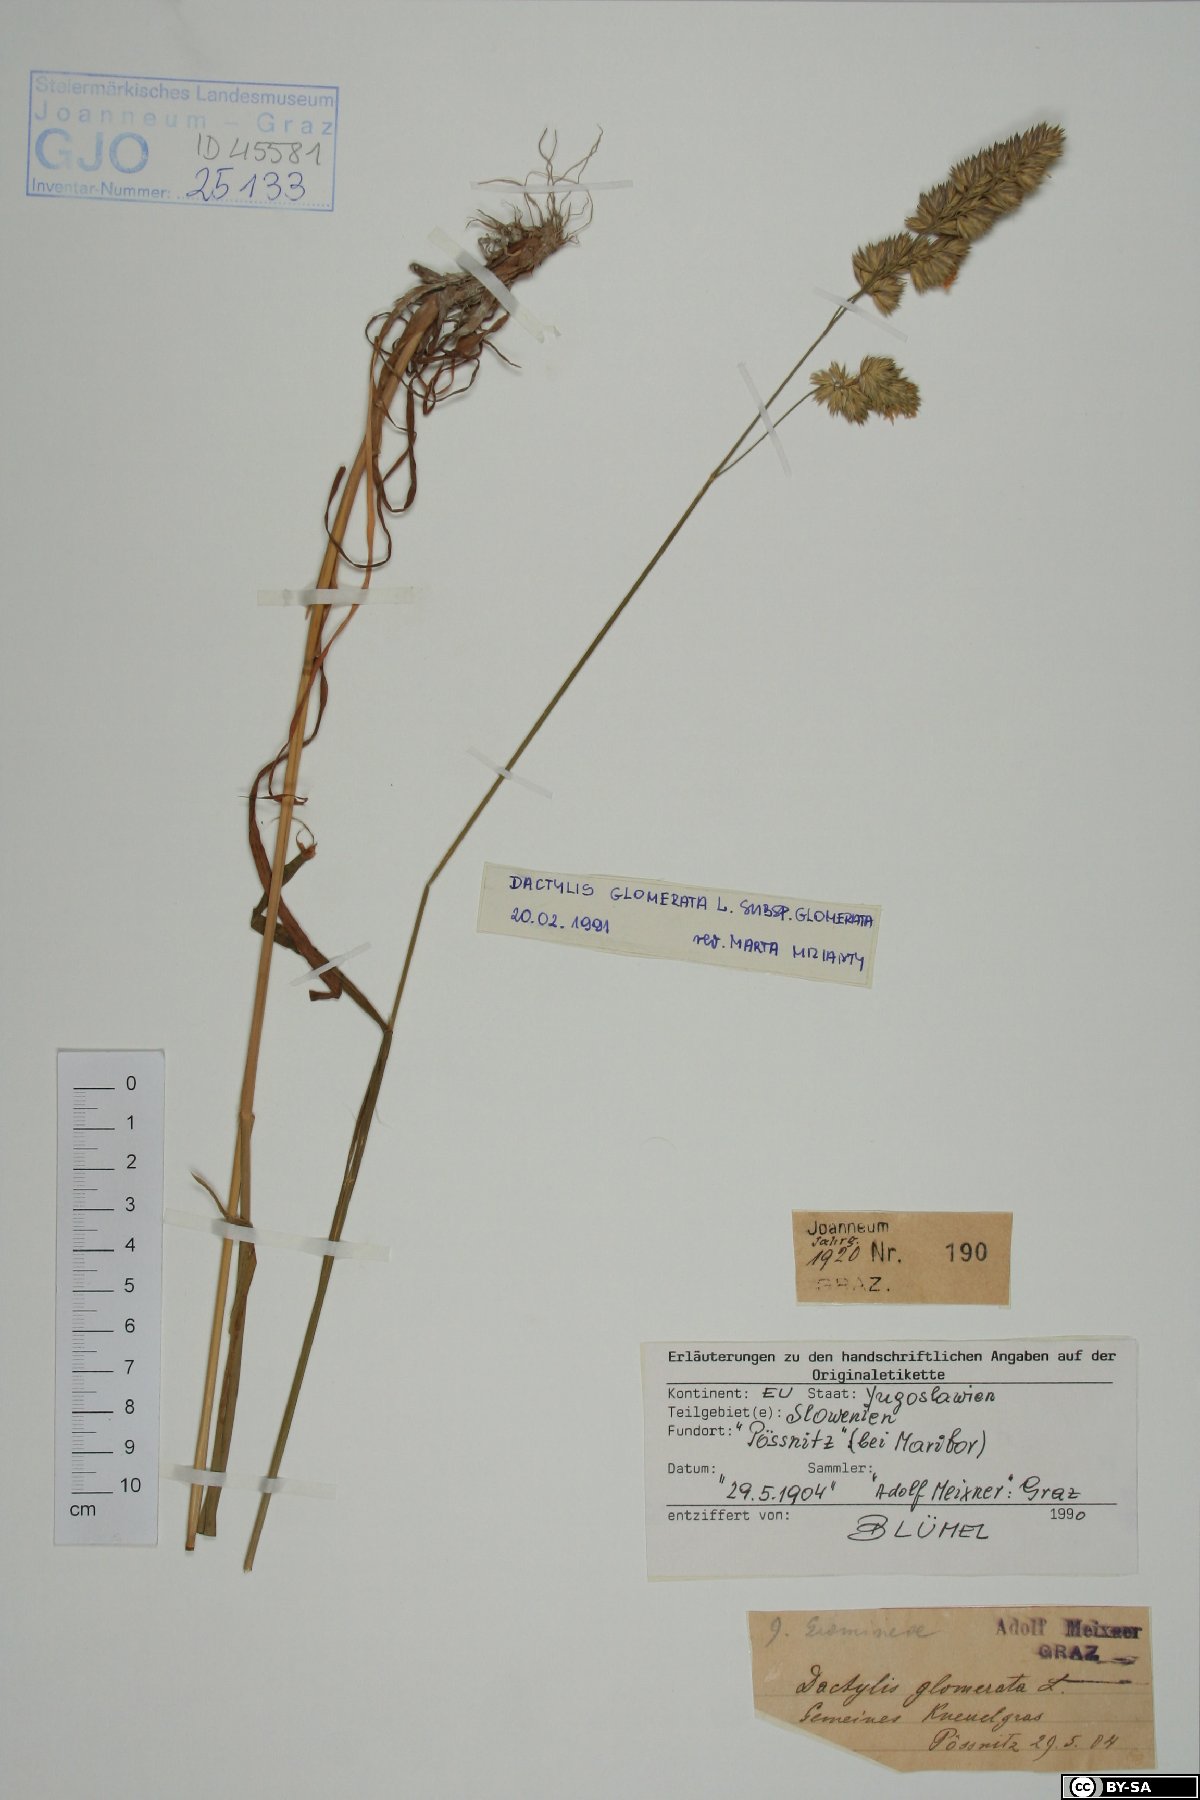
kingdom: Plantae
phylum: Tracheophyta
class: Liliopsida
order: Poales
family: Poaceae
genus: Dactylis
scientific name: Dactylis glomerata
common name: Orchardgrass
